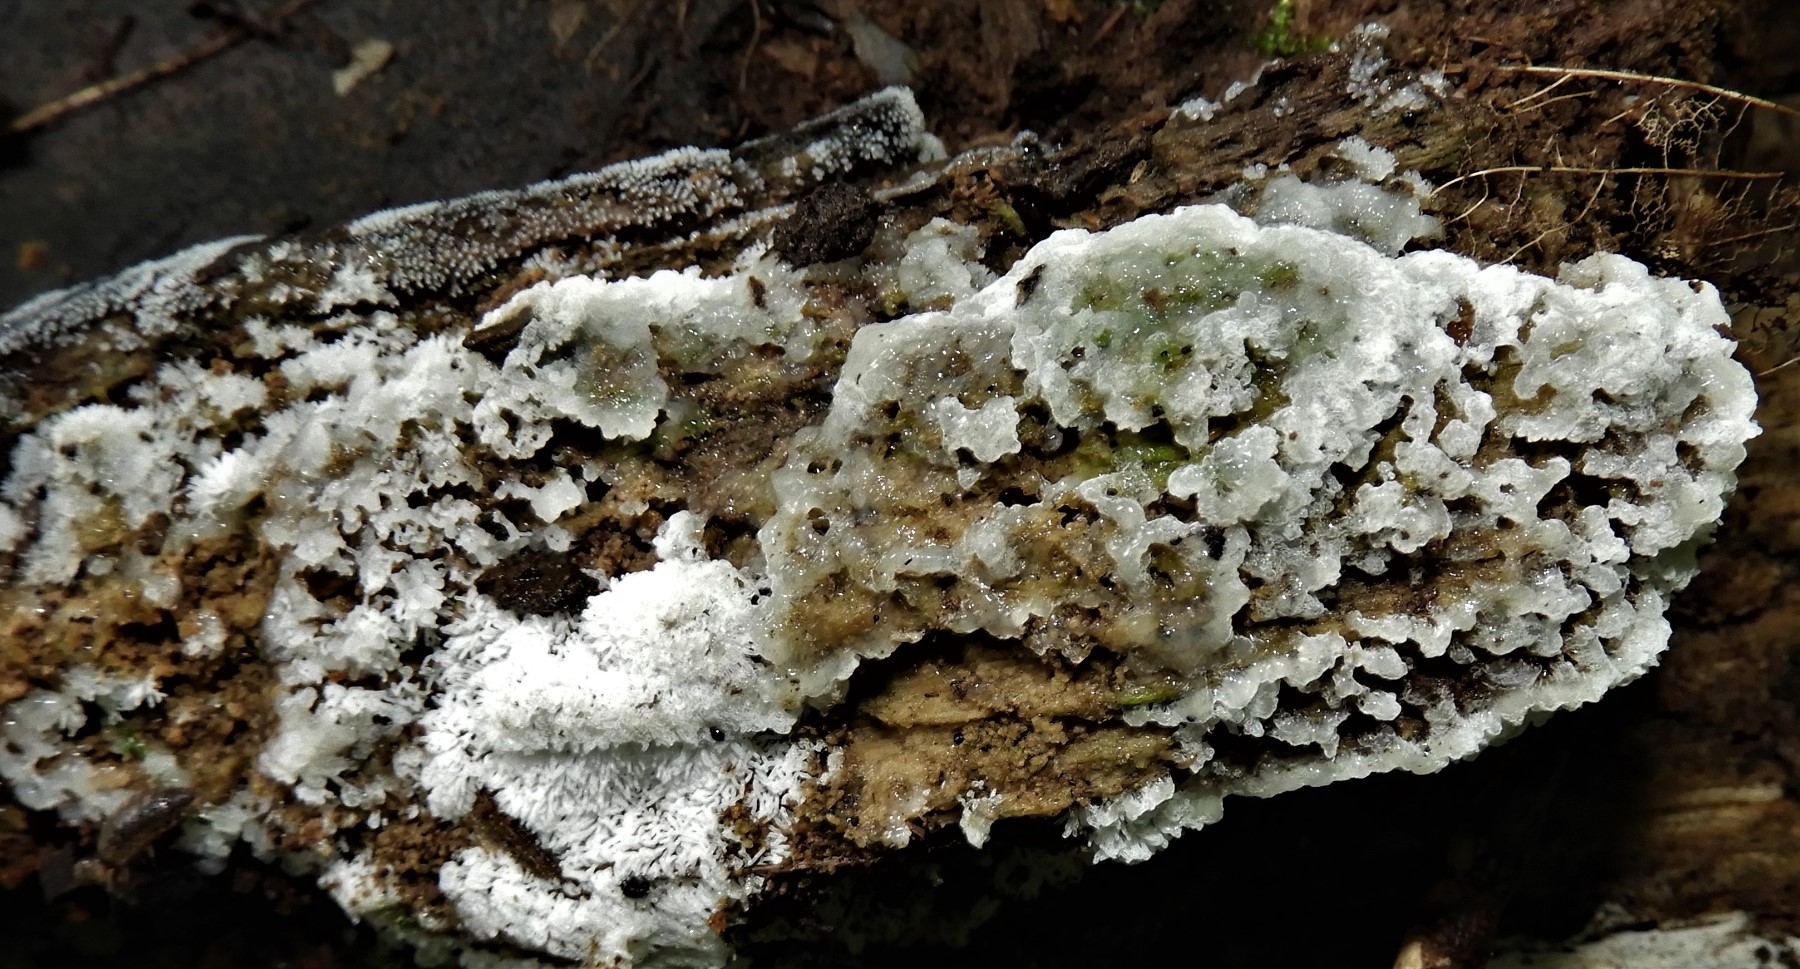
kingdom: Protozoa
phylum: Amoebozoa
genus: Ceratiomyxa
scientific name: Ceratiomyxa
